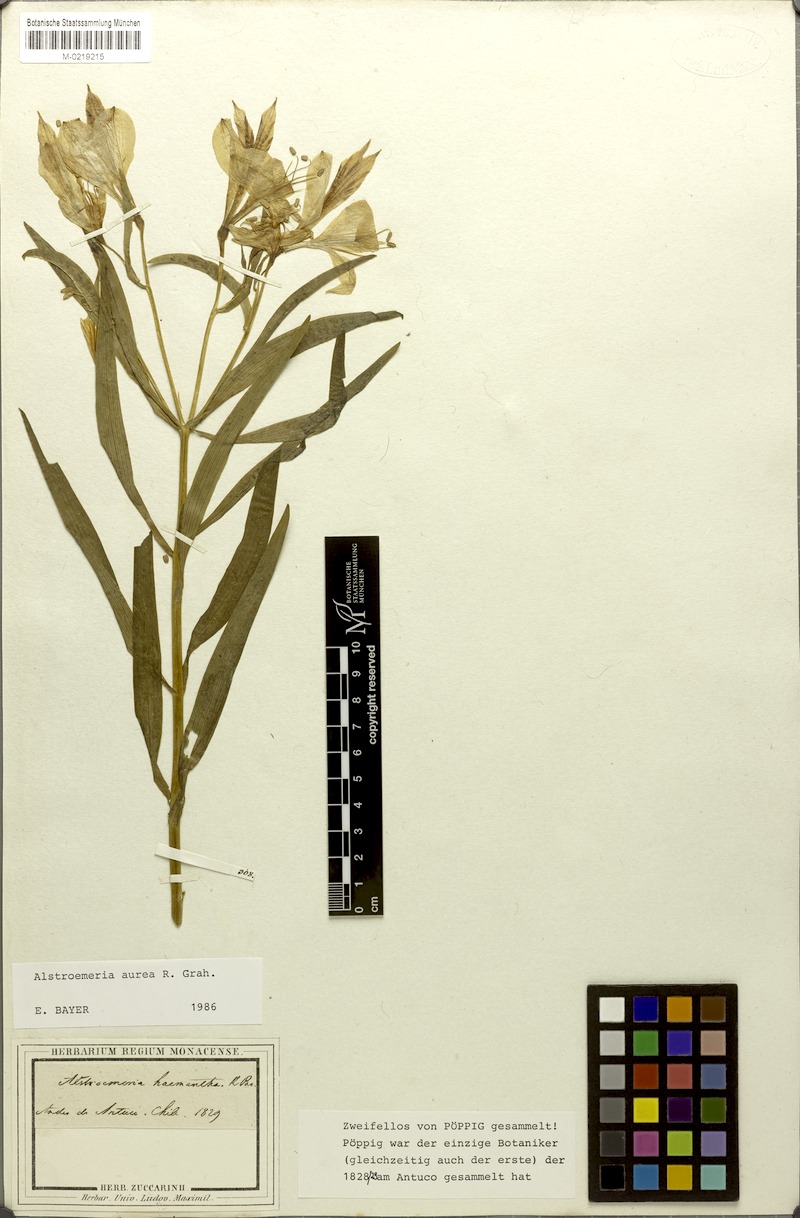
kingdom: Plantae
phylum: Tracheophyta
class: Liliopsida
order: Liliales
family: Alstroemeriaceae
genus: Alstroemeria
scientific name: Alstroemeria aurea
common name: Peruvian lily
